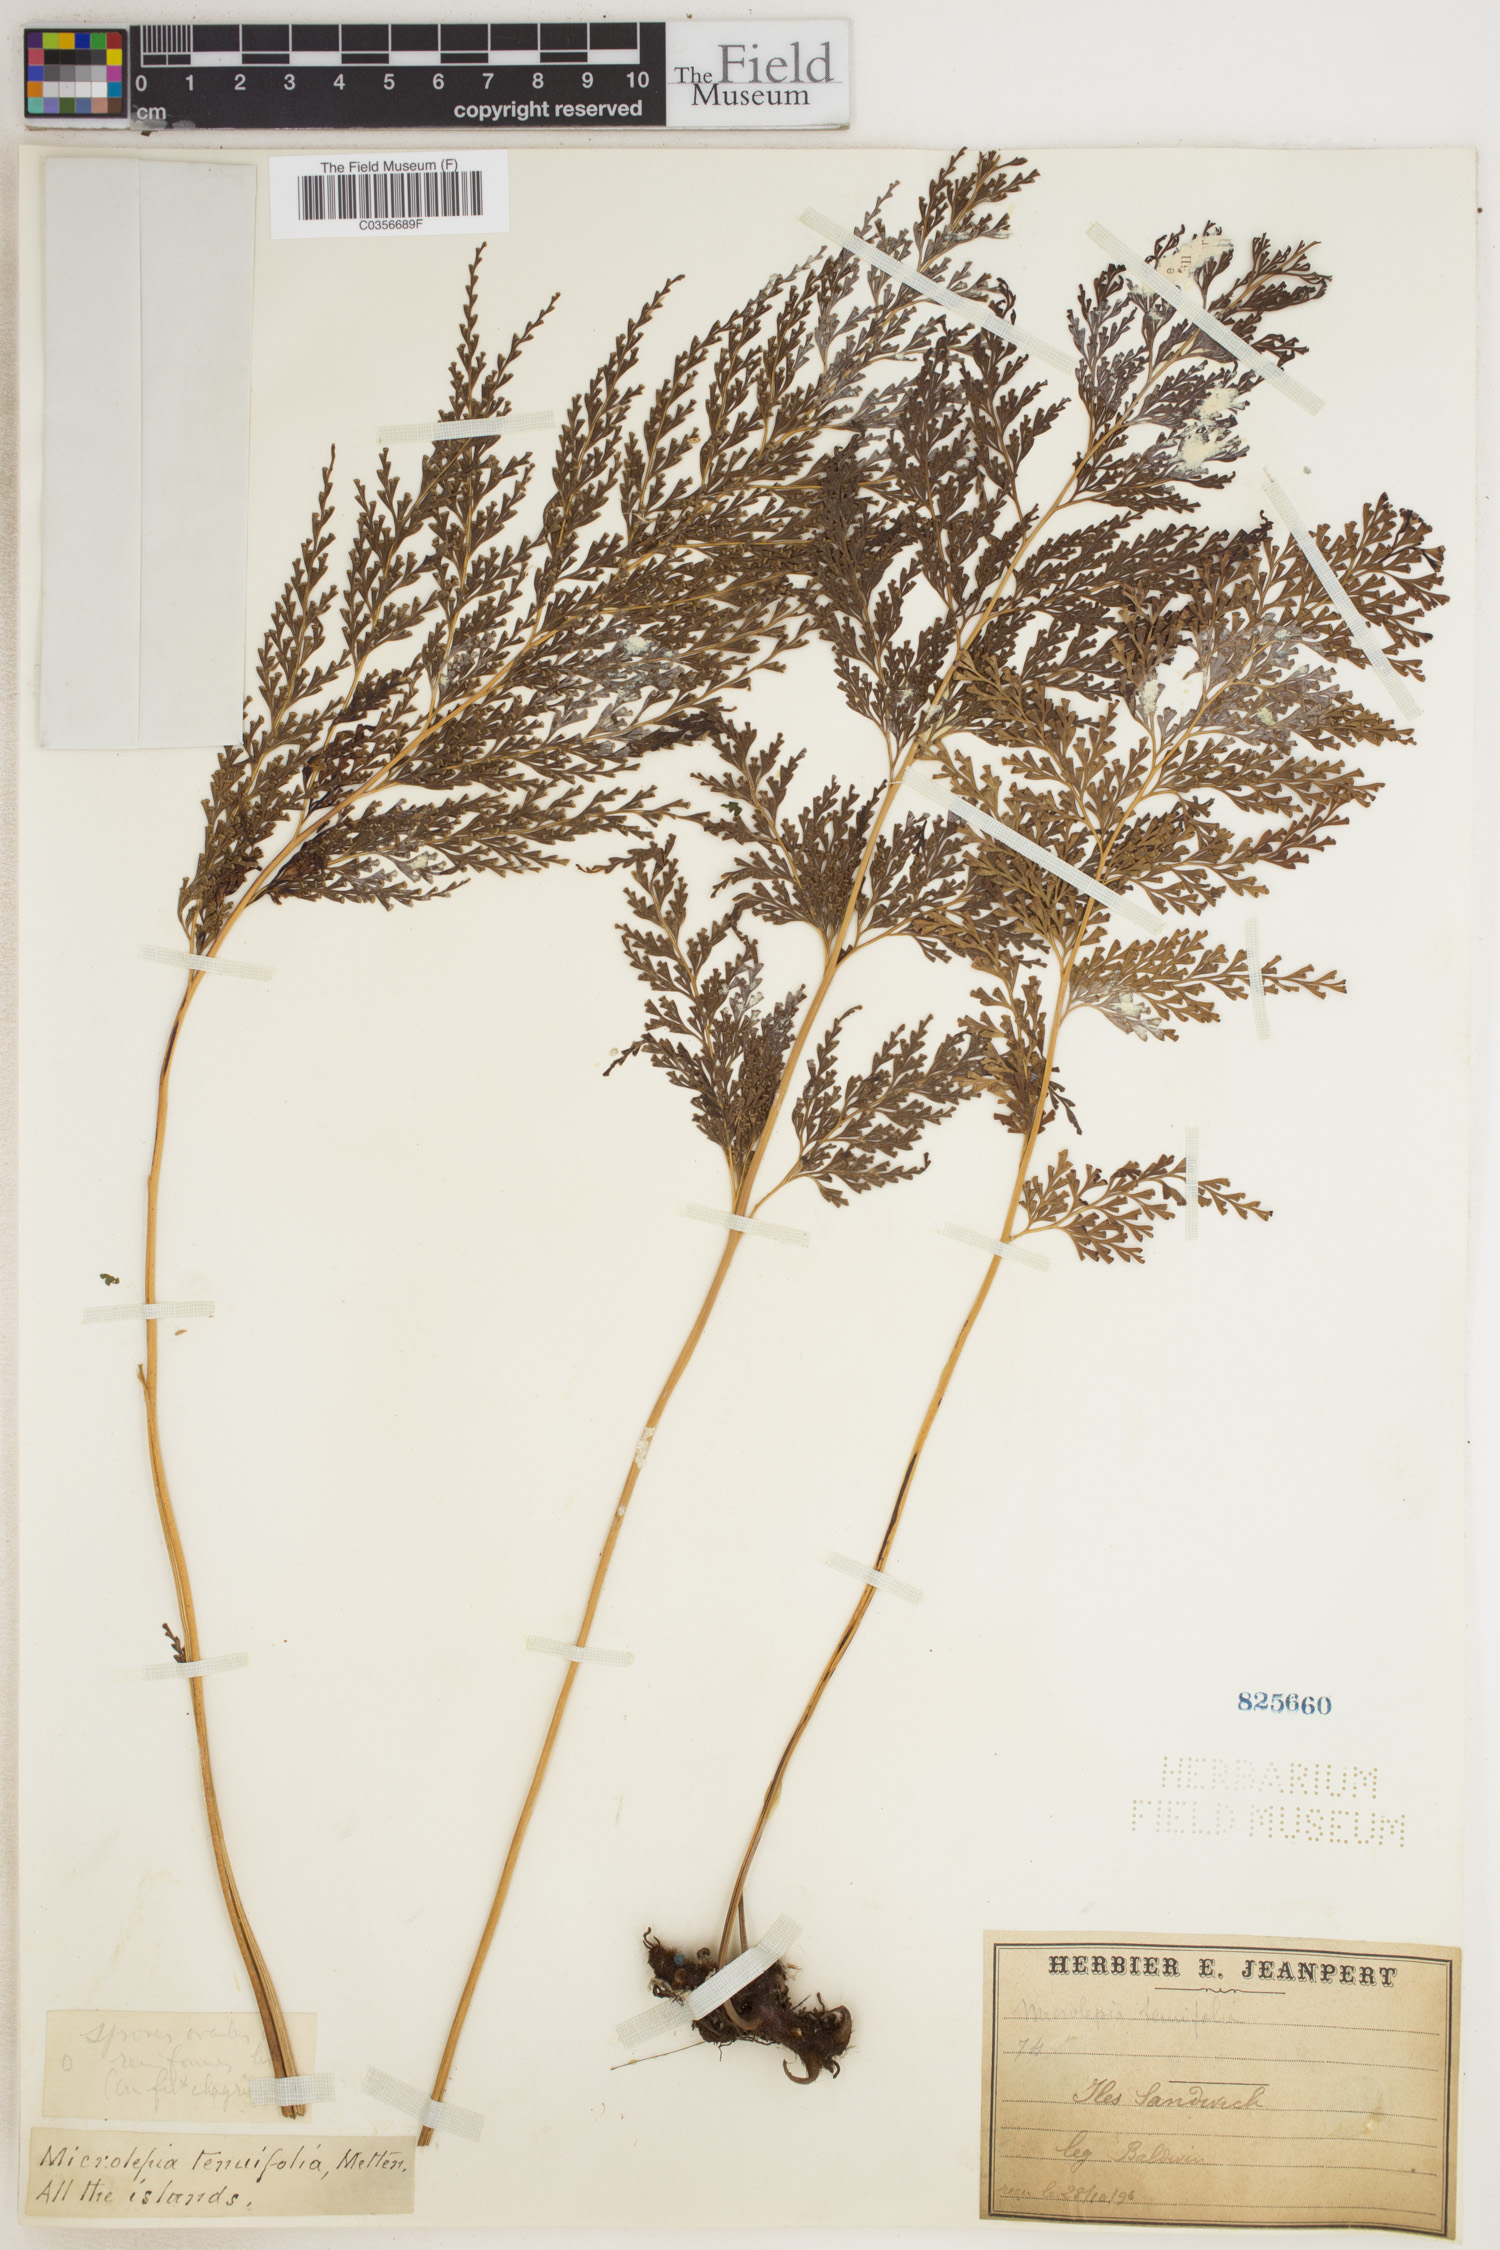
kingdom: Plantae
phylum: Tracheophyta
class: Polypodiopsida
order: Polypodiales
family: Lindsaeaceae
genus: Odontosoria
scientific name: Odontosoria chinensis
